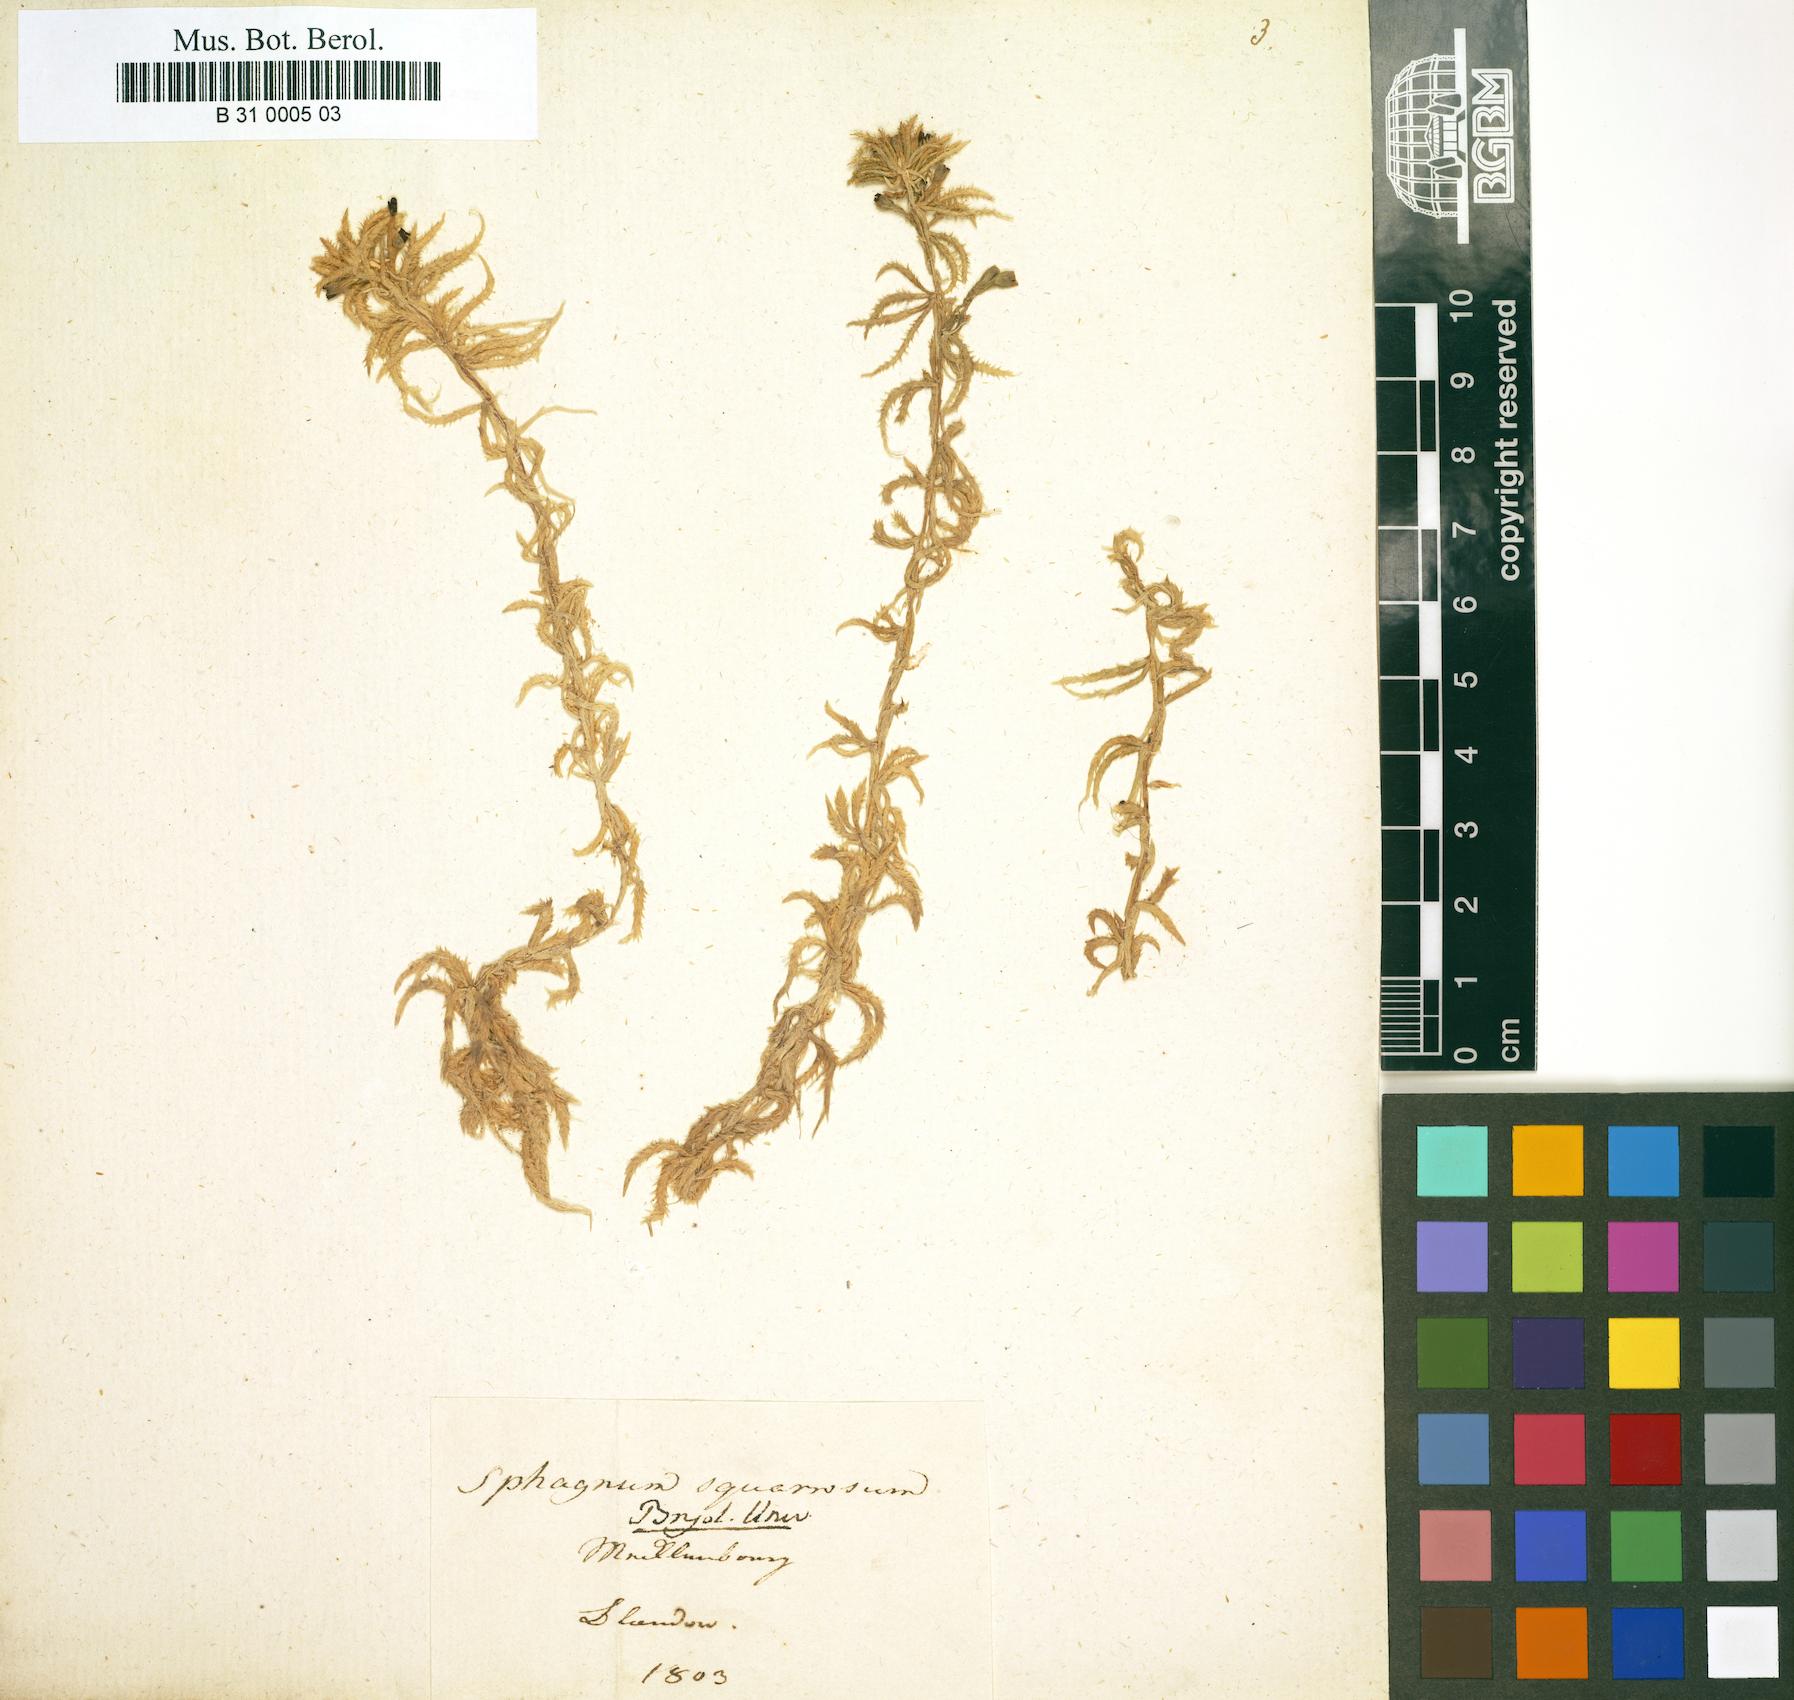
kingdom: Plantae
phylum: Bryophyta
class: Sphagnopsida
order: Sphagnales
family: Sphagnaceae
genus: Sphagnum
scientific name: Sphagnum squarrosum
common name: Shaggy peat moss
